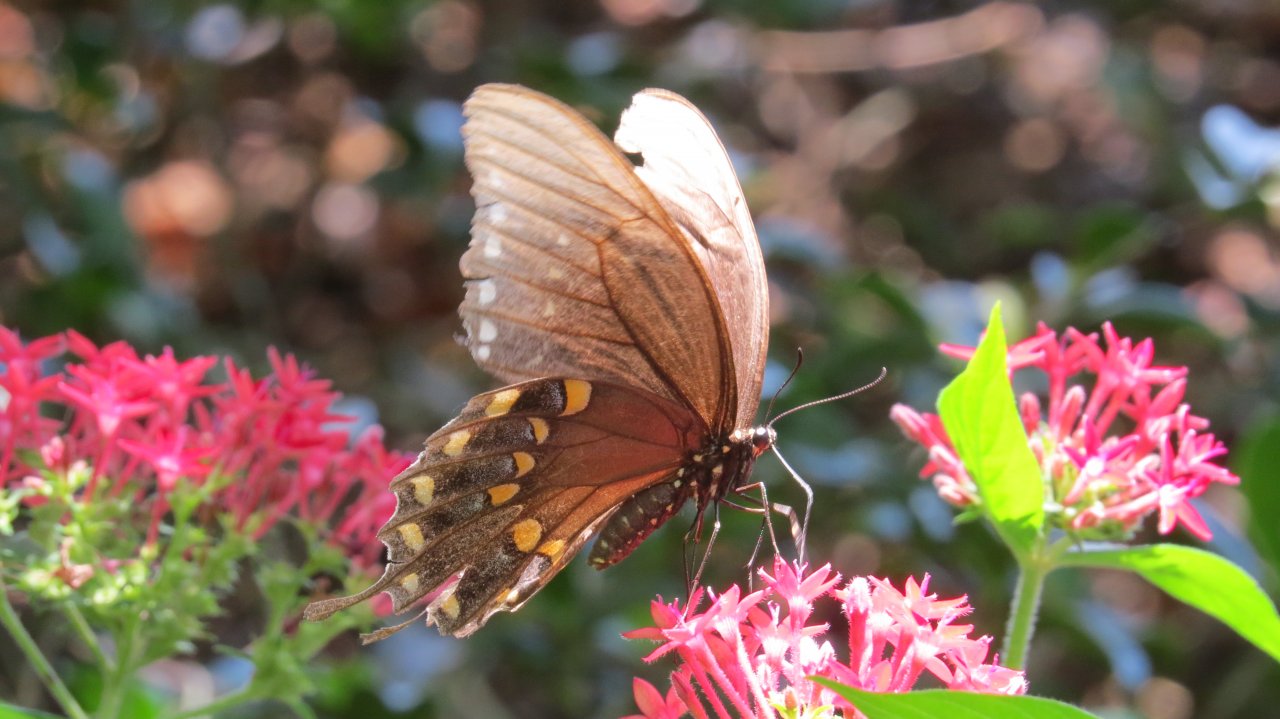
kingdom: Animalia
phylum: Arthropoda
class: Insecta
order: Lepidoptera
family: Papilionidae
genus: Pterourus
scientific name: Pterourus troilus
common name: Spicebush Swallowtail
